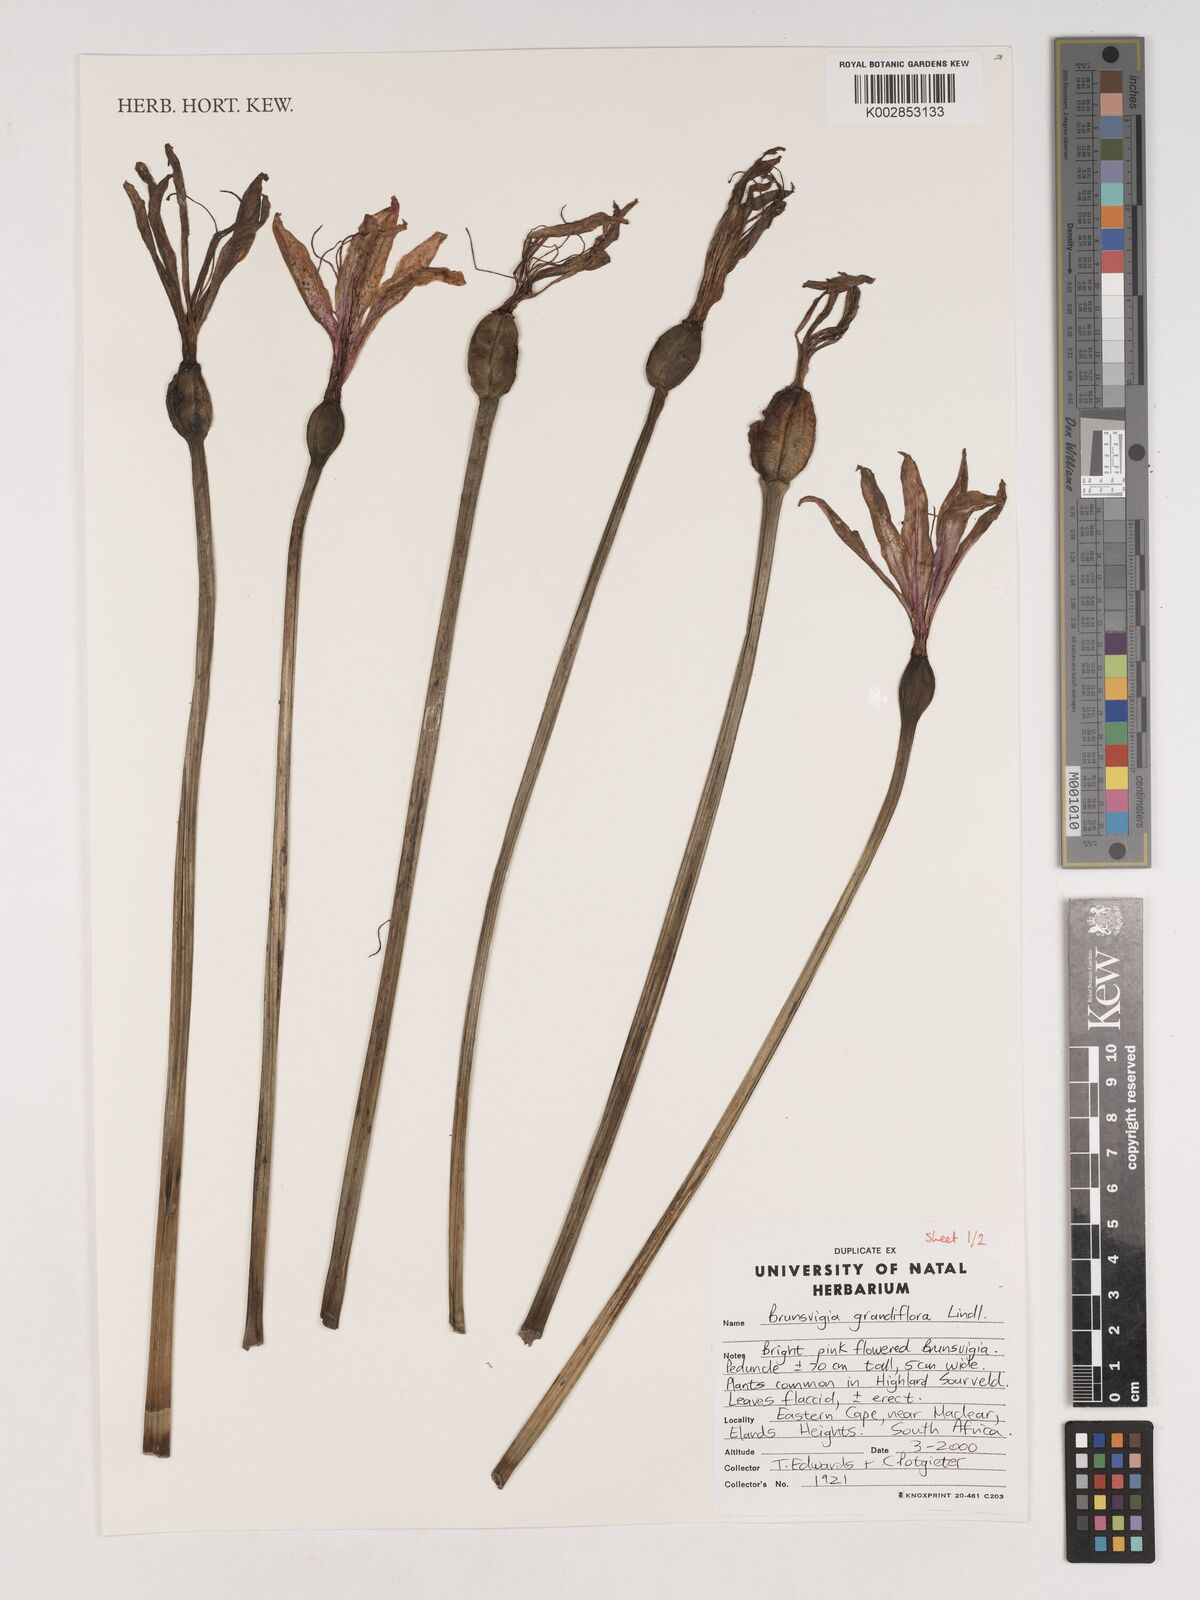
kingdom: Plantae
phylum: Tracheophyta
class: Liliopsida
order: Asparagales
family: Amaryllidaceae
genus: Brunsvigia
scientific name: Brunsvigia grandiflora
